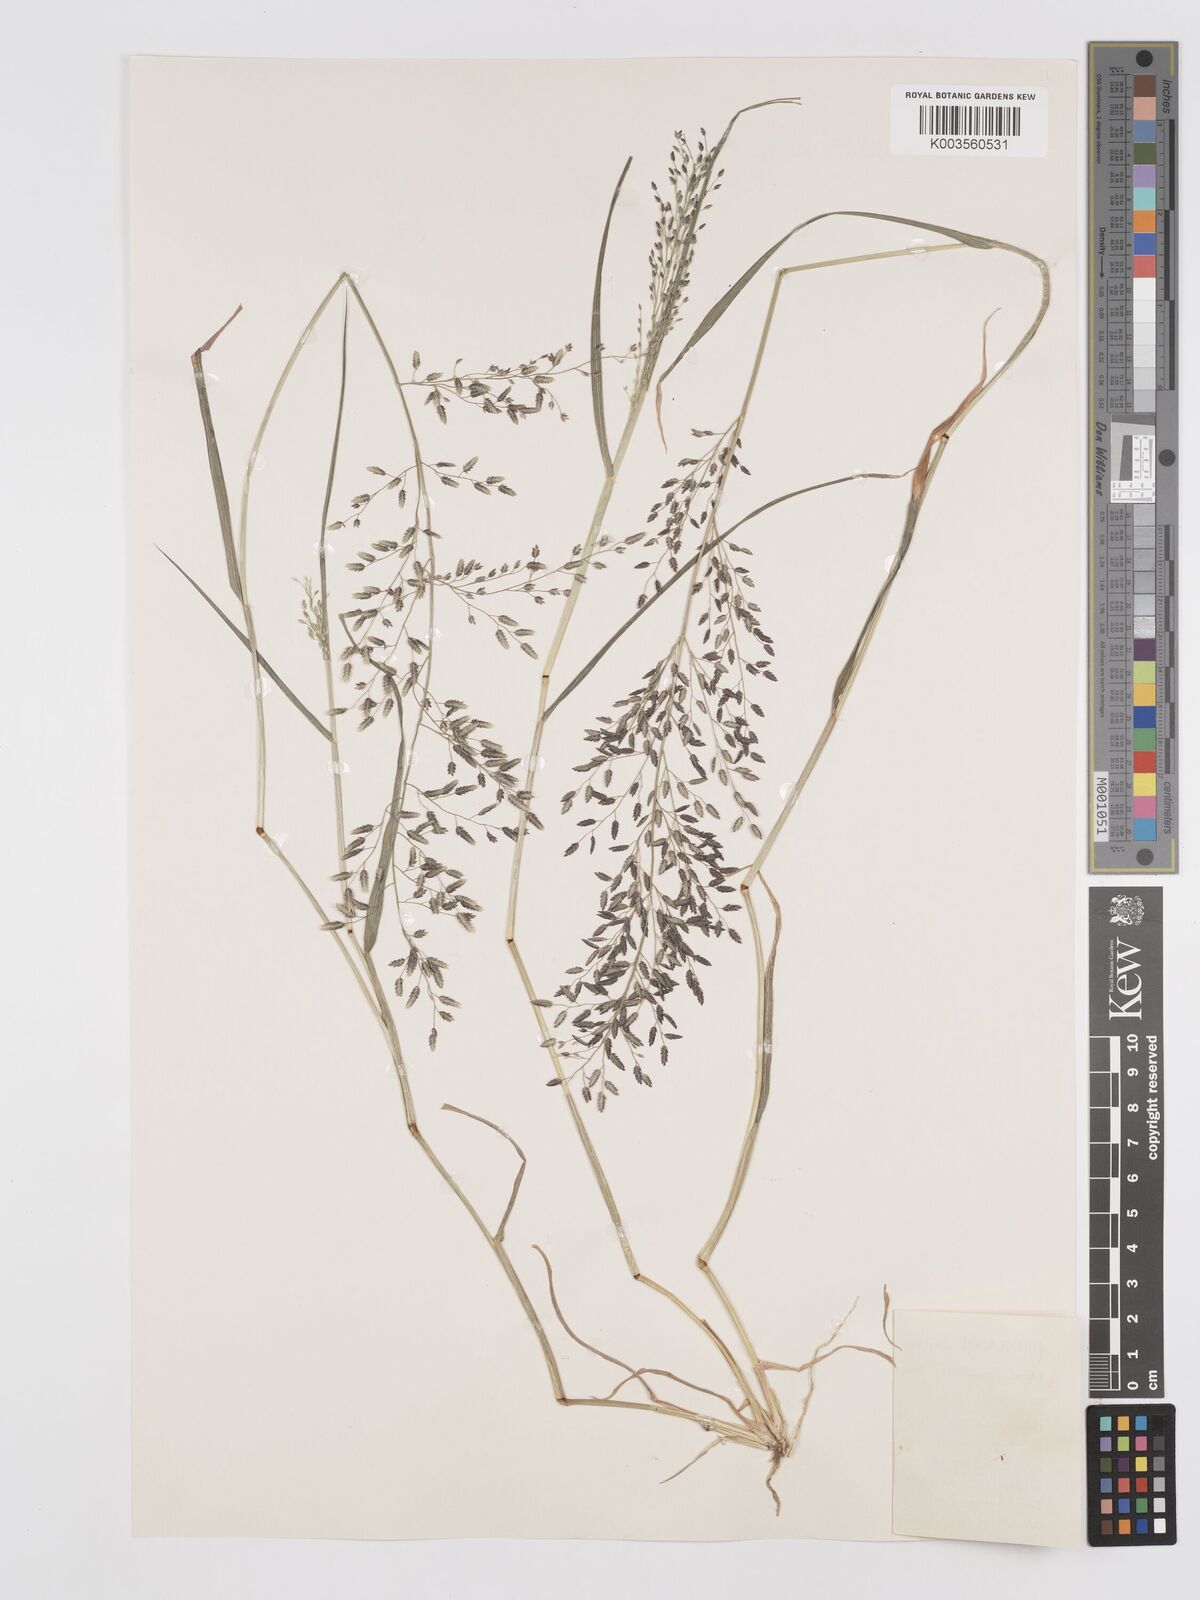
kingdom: Plantae
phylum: Tracheophyta
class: Liliopsida
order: Poales
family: Poaceae
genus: Eragrostis
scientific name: Eragrostis cilianensis
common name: Stinkgrass
